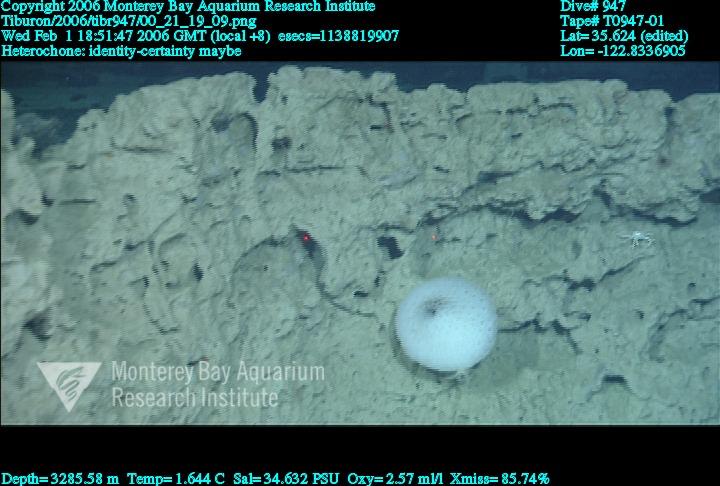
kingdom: Animalia
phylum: Porifera
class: Hexactinellida
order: Sceptrulophora
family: Aphrocallistidae
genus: Heterochone
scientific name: Heterochone
